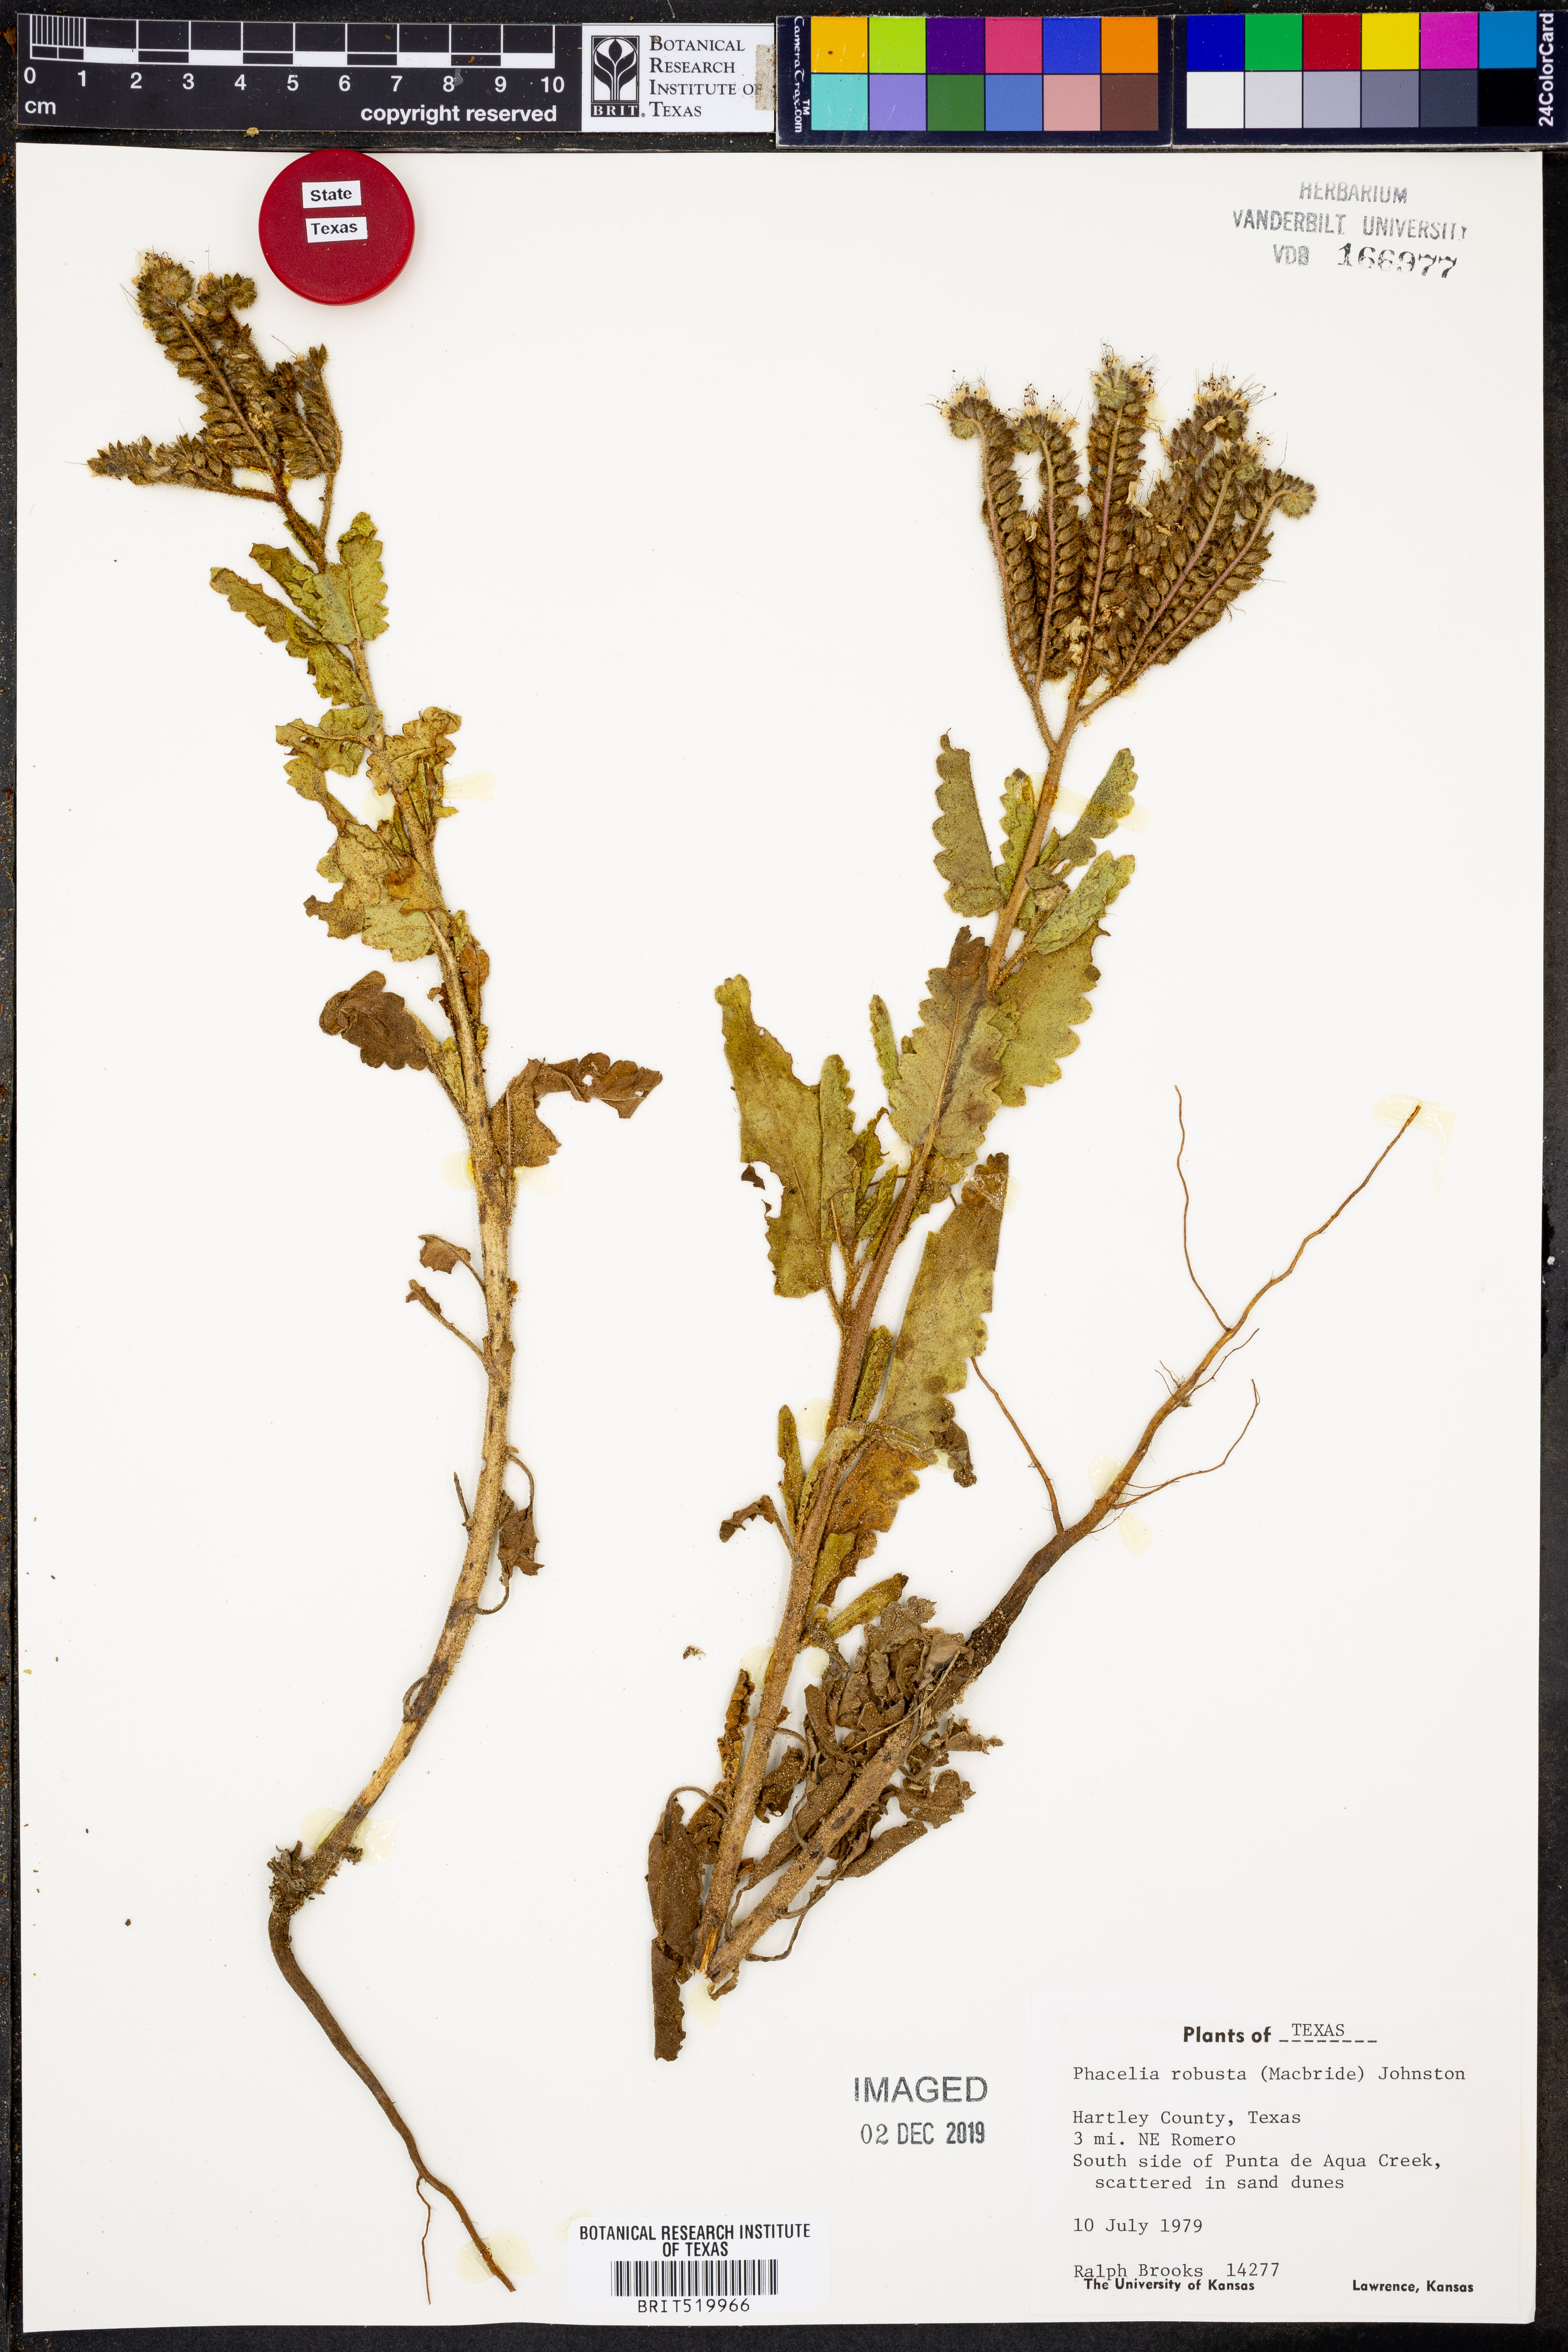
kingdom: Plantae
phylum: Tracheophyta
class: Magnoliopsida
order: Boraginales
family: Hydrophyllaceae
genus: Phacelia
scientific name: Phacelia robusta
